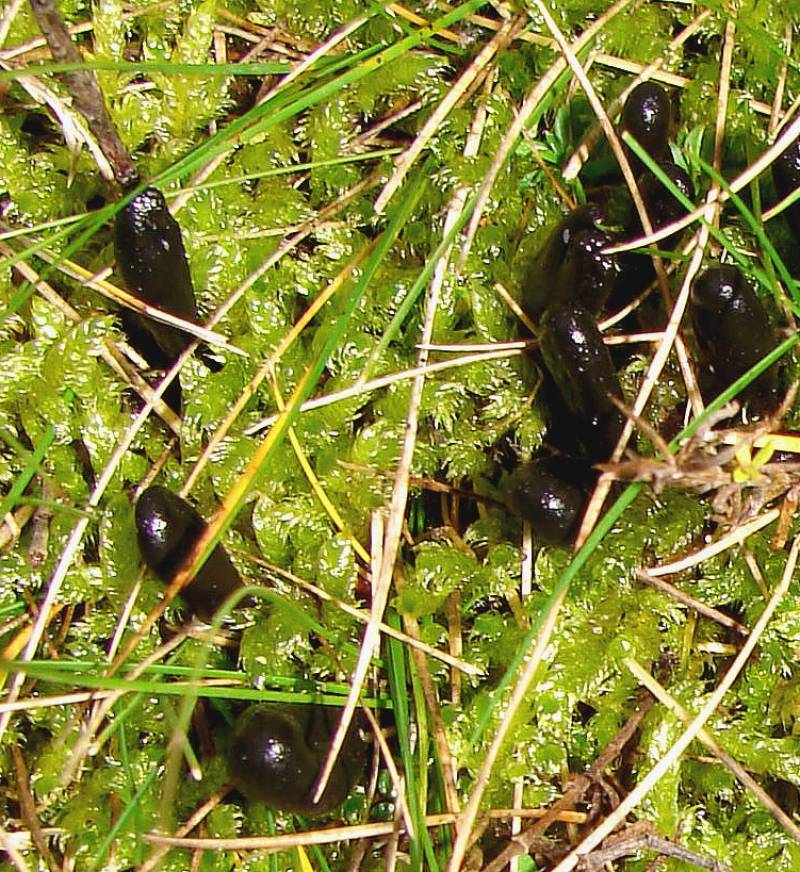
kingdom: Fungi
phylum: Ascomycota
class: Geoglossomycetes
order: Geoglossales
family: Geoglossaceae
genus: Hemileucoglossum
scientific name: Hemileucoglossum elongatum
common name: småsporet jordtunge
